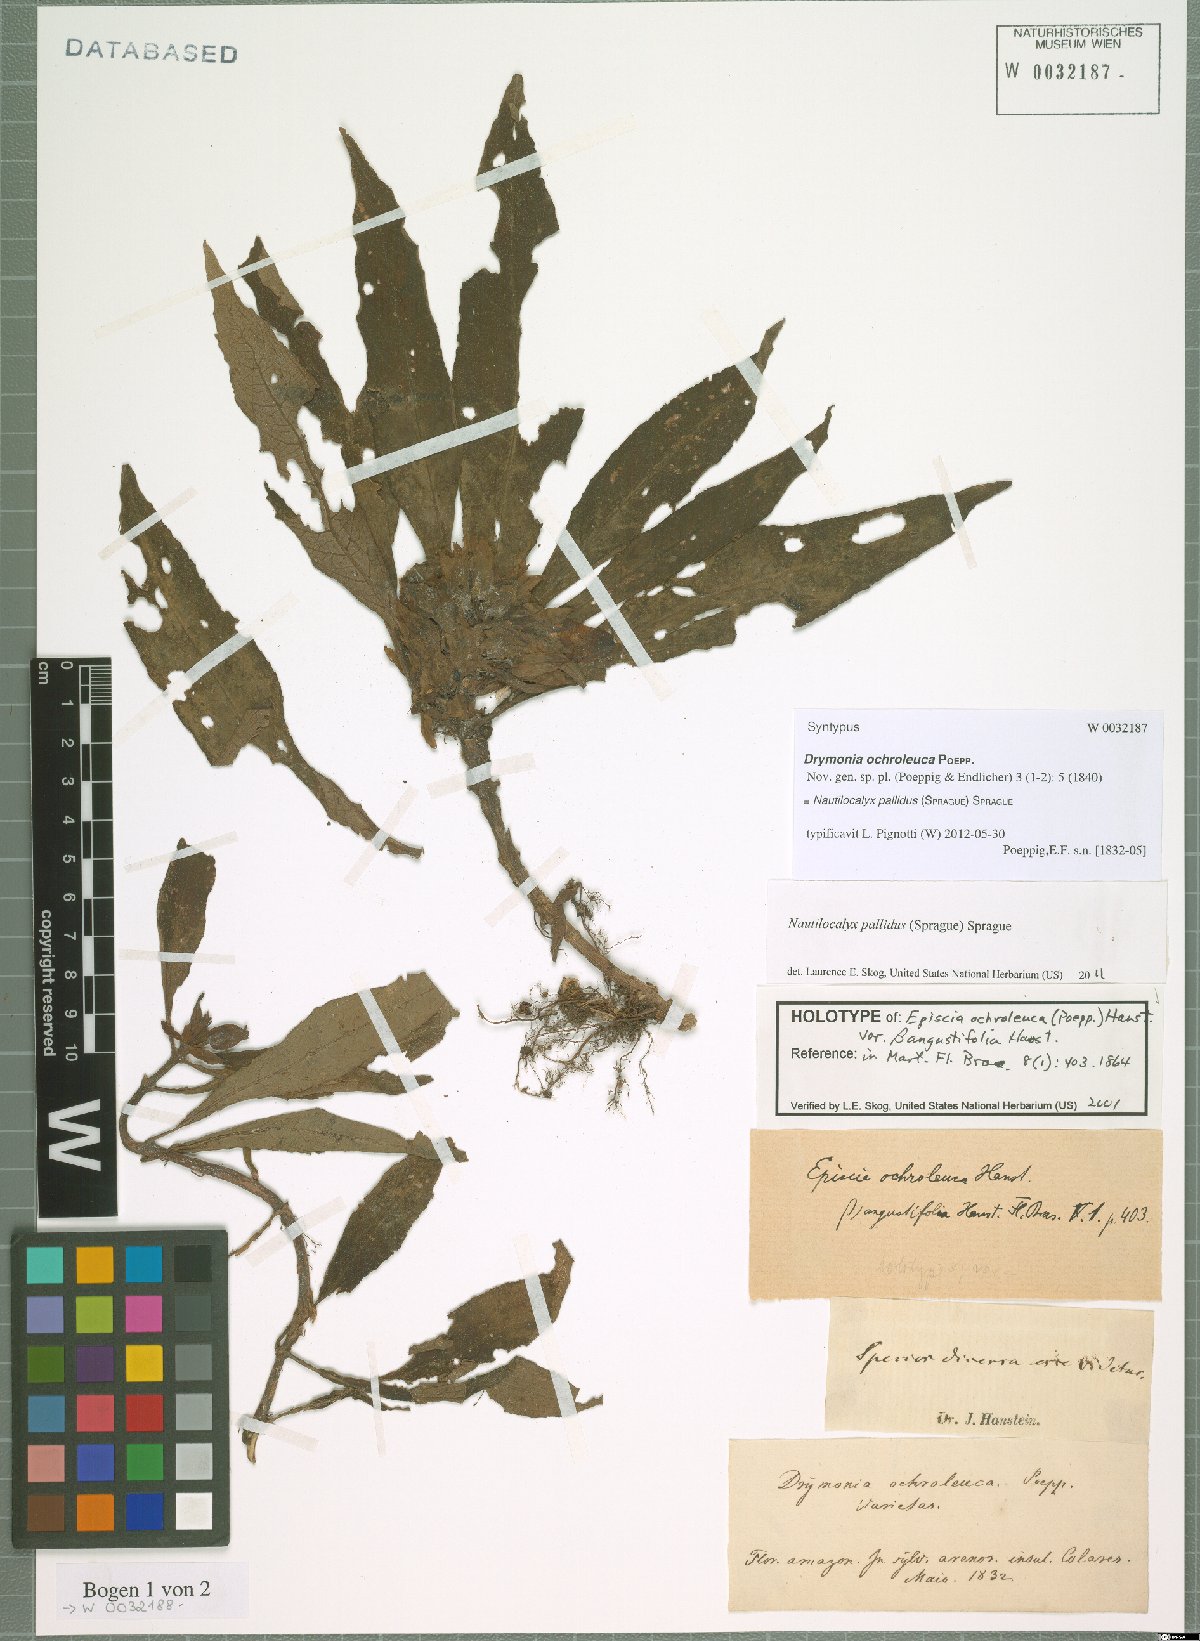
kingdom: Plantae
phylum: Tracheophyta
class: Magnoliopsida
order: Lamiales
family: Gesneriaceae
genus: Nautilocalyx
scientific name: Nautilocalyx pallidus
